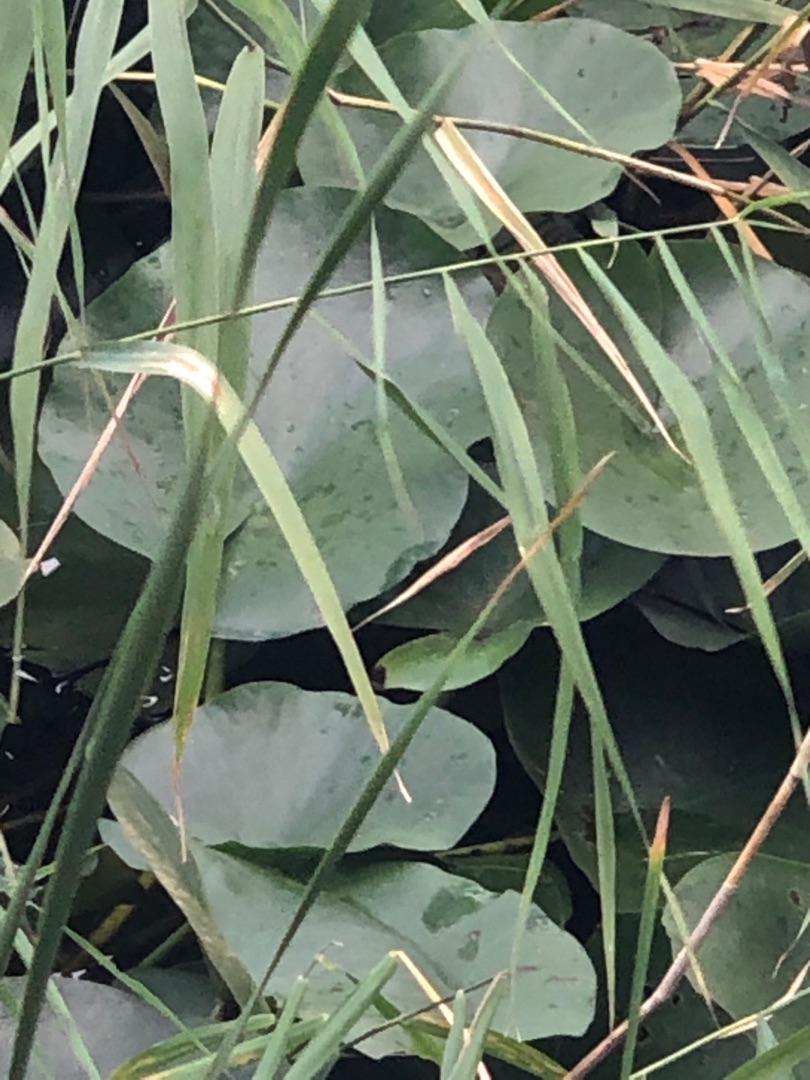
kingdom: Plantae
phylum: Tracheophyta
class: Magnoliopsida
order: Nymphaeales
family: Nymphaeaceae
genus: Nymphaea
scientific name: Nymphaea alba
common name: Hvid åkande
